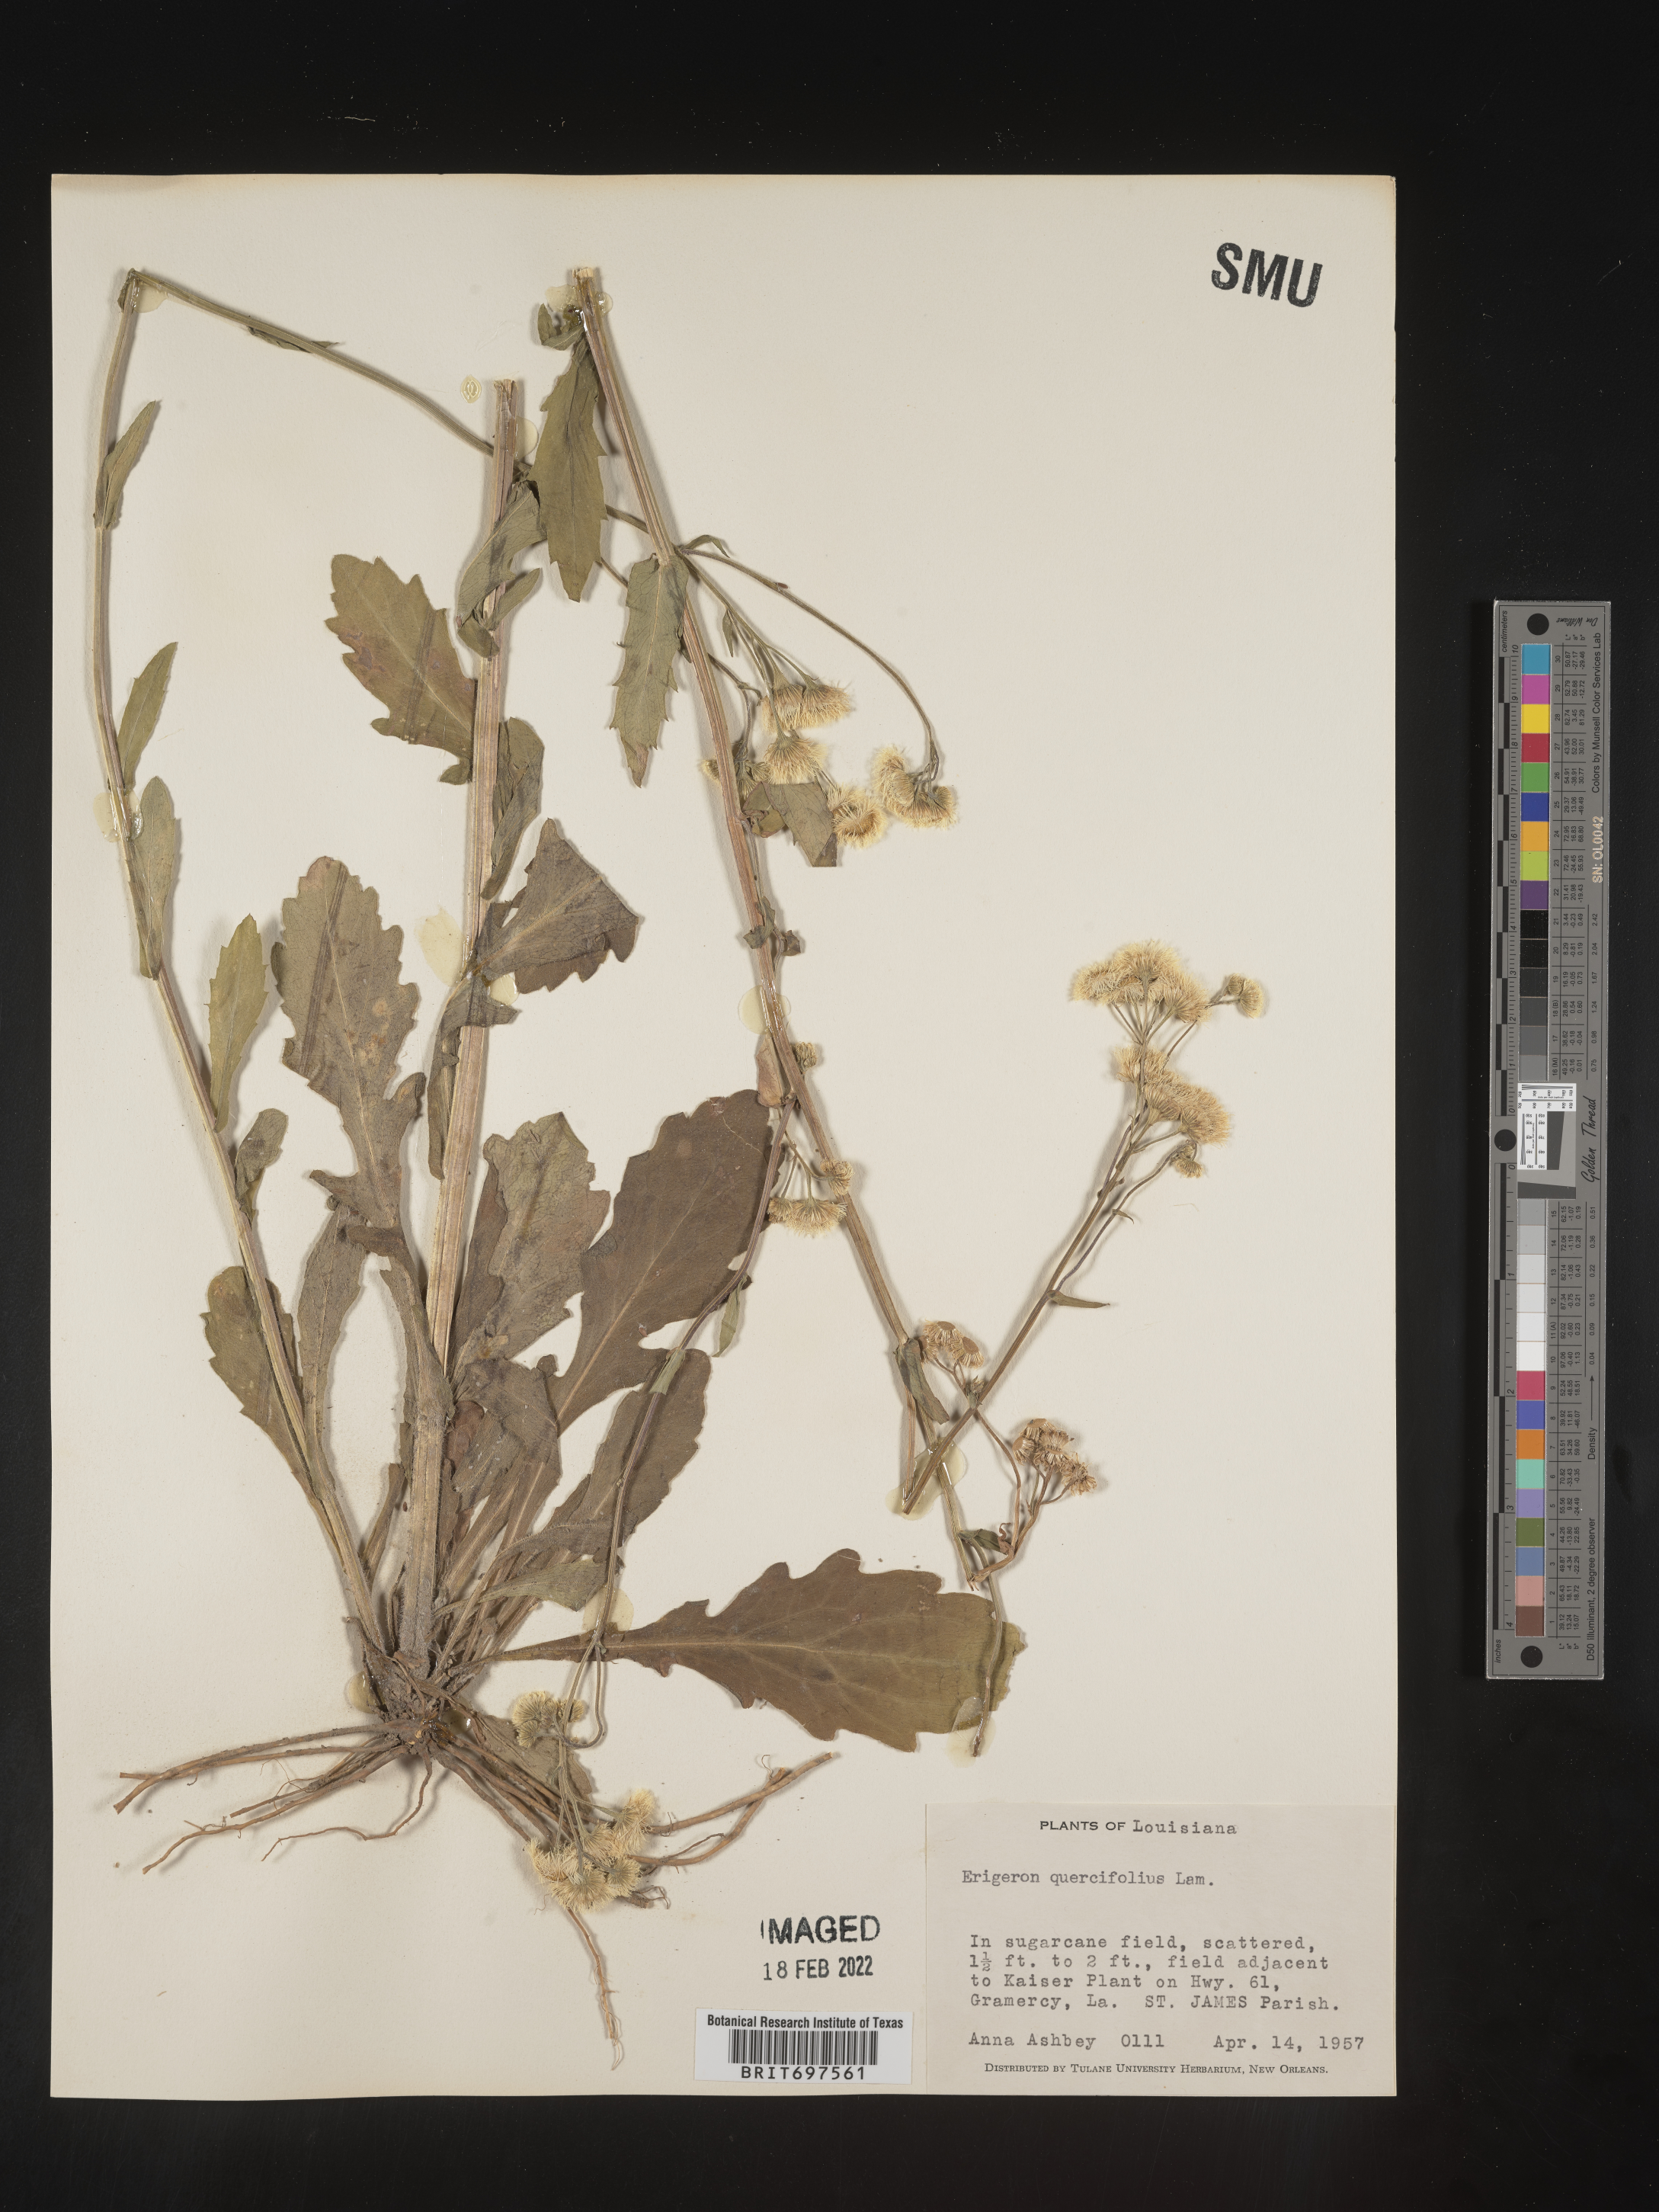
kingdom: Plantae
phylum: Tracheophyta
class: Magnoliopsida
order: Asterales
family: Asteraceae
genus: Erigeron
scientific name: Erigeron philadelphicus
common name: Robin's-plantain
